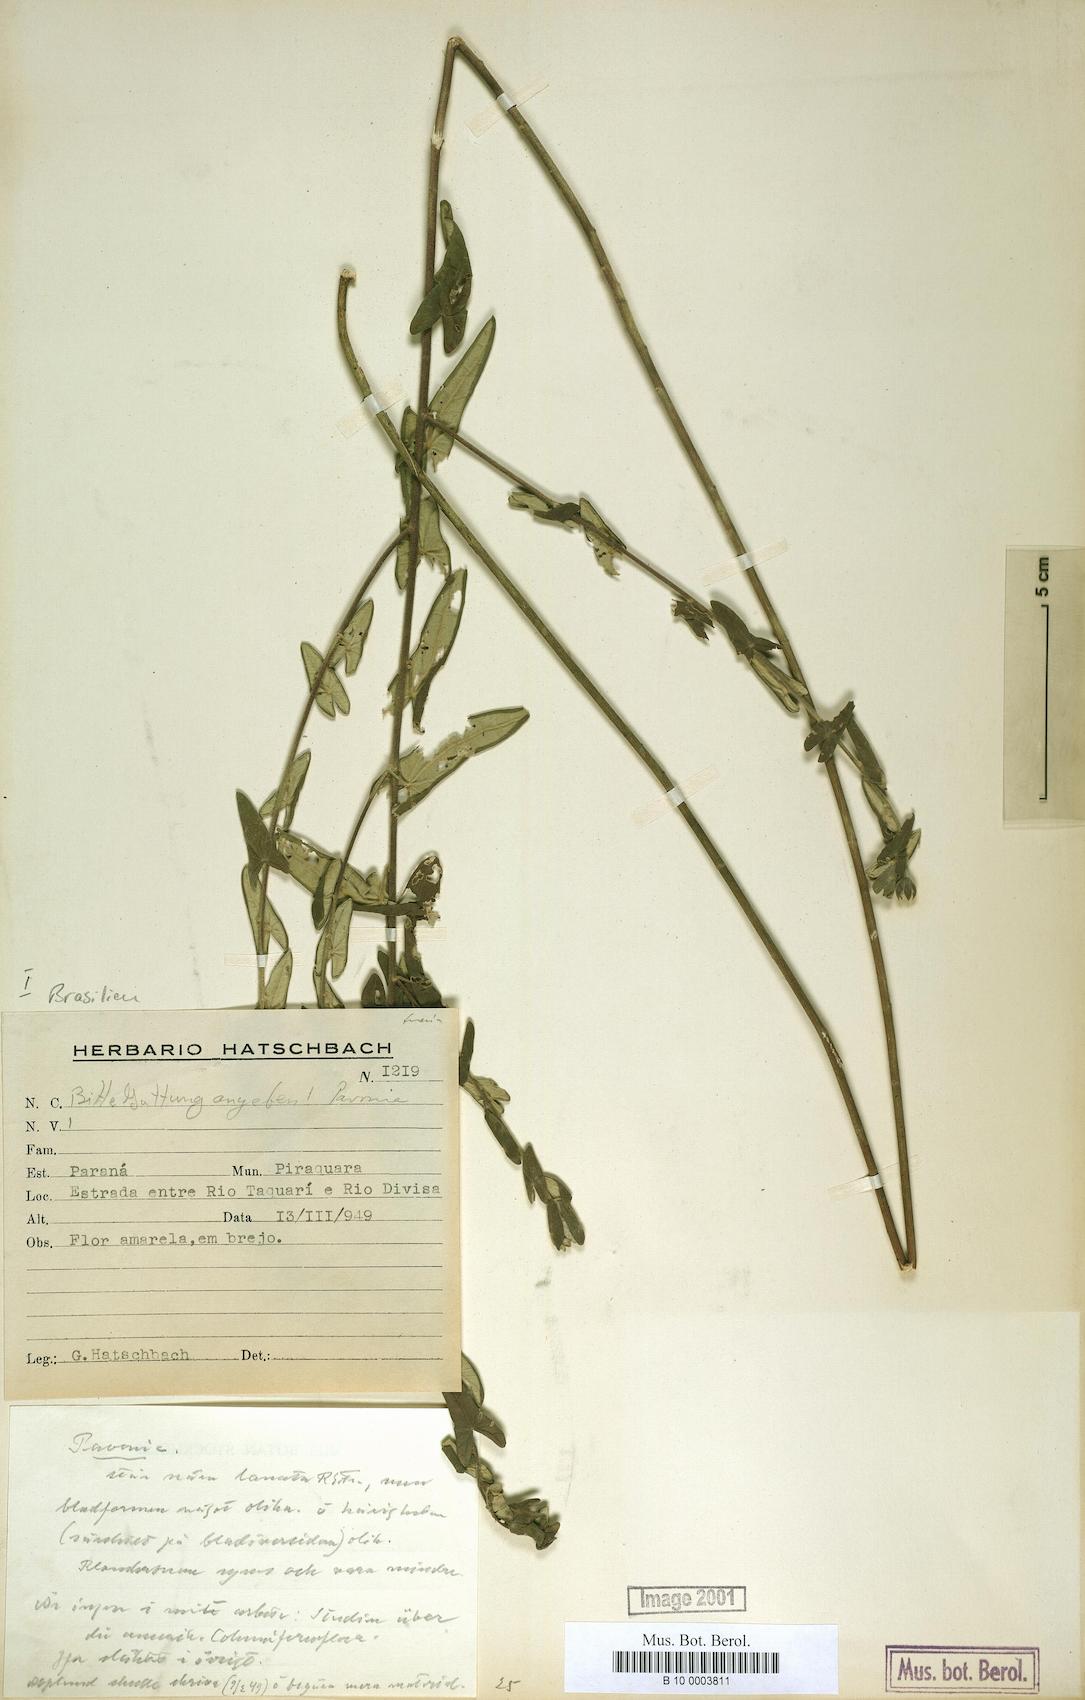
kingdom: Plantae
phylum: Tracheophyta
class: Magnoliopsida
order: Malvales
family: Malvaceae
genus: Pavonia
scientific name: Pavonia
